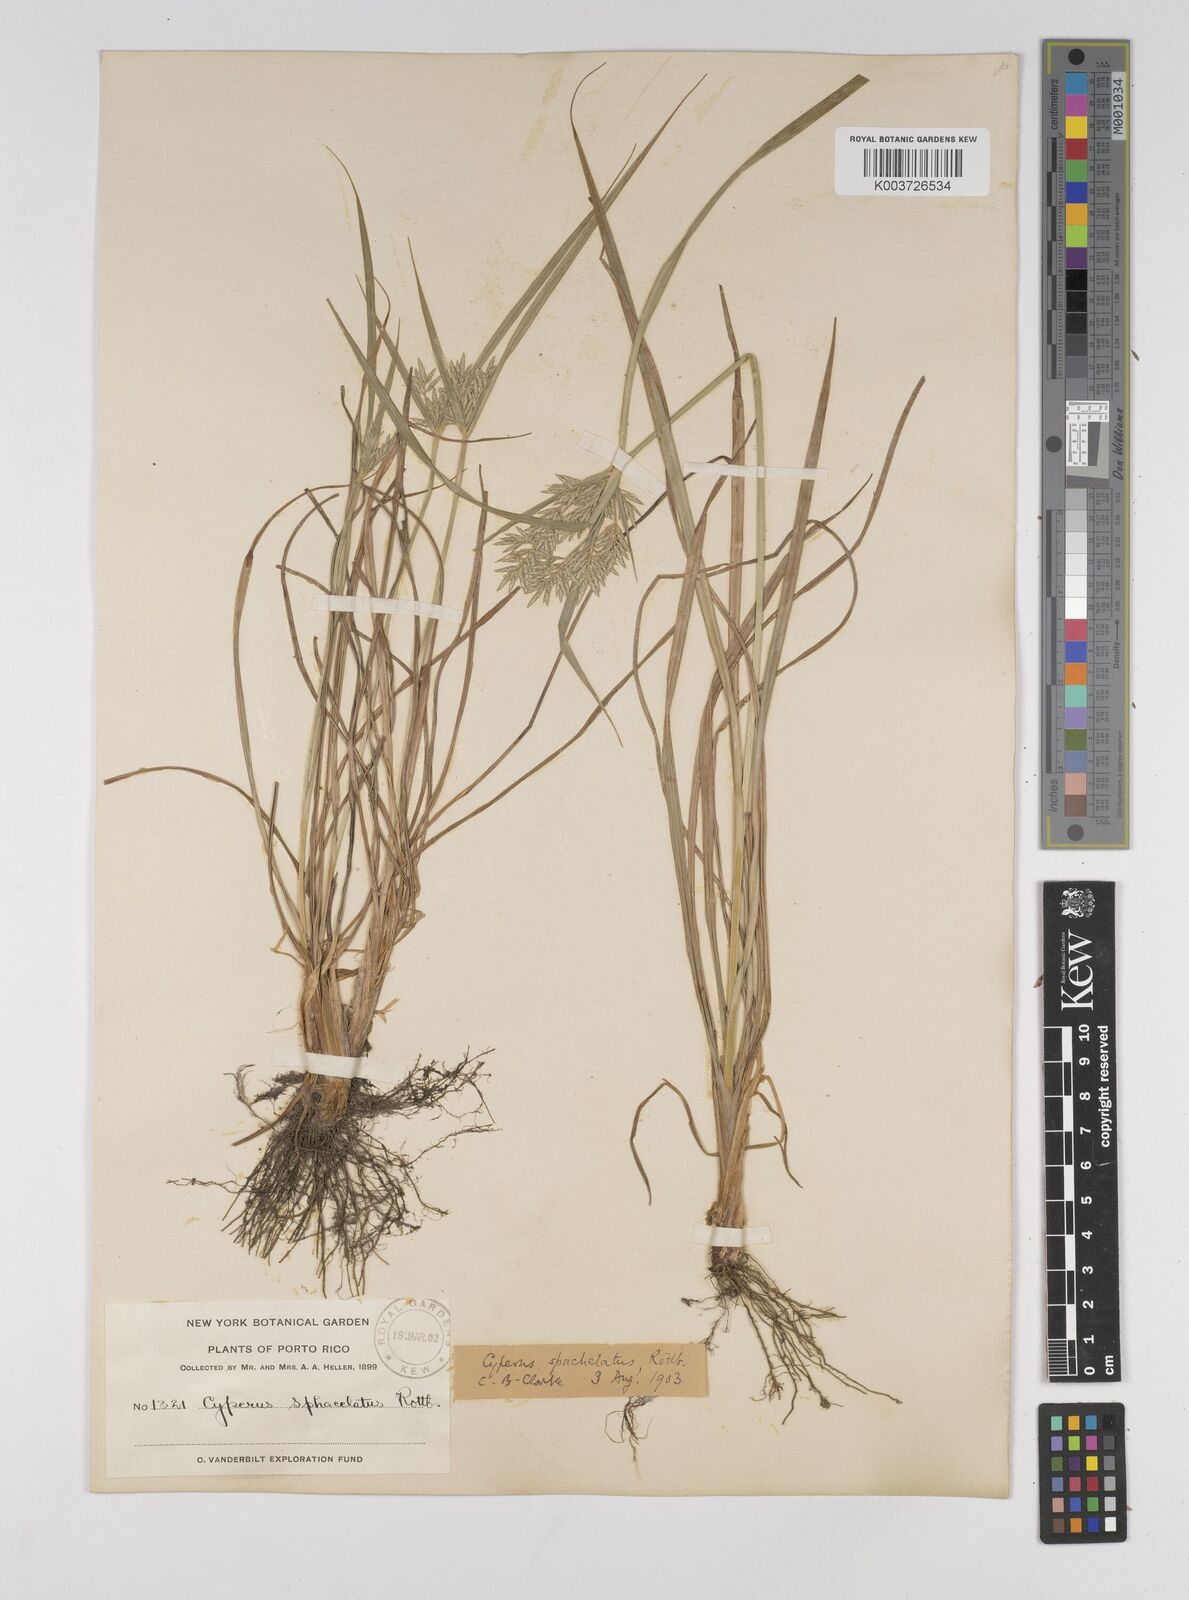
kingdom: Plantae
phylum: Tracheophyta
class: Liliopsida
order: Poales
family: Cyperaceae
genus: Cyperus
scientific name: Cyperus sphacelatus
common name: Roadside flatsedge
